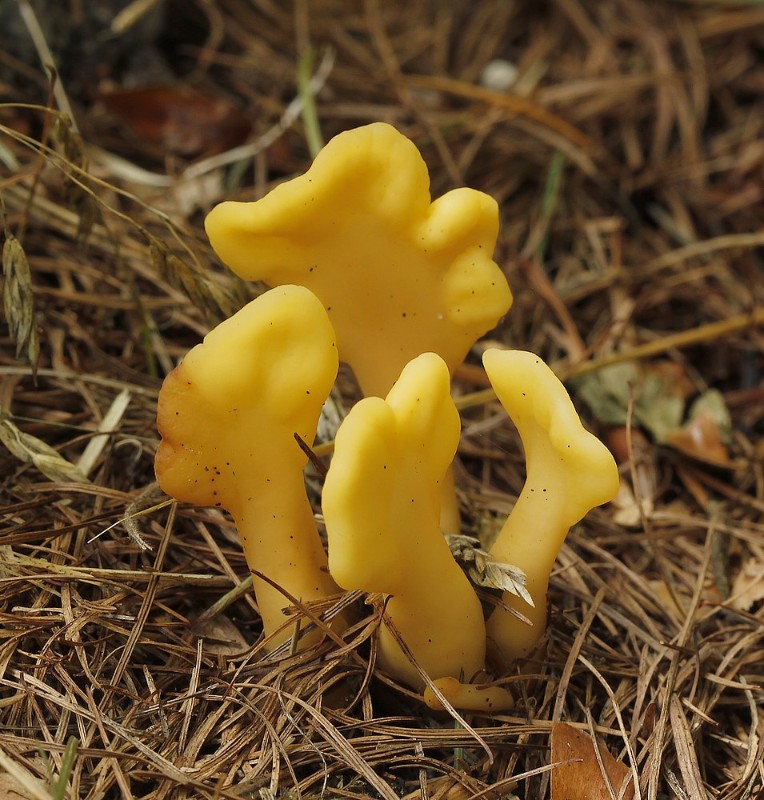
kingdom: Fungi
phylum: Ascomycota
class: Leotiomycetes
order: Rhytismatales
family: Cudoniaceae
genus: Spathularia
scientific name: Spathularia flavida
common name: gul spatelsvamp
